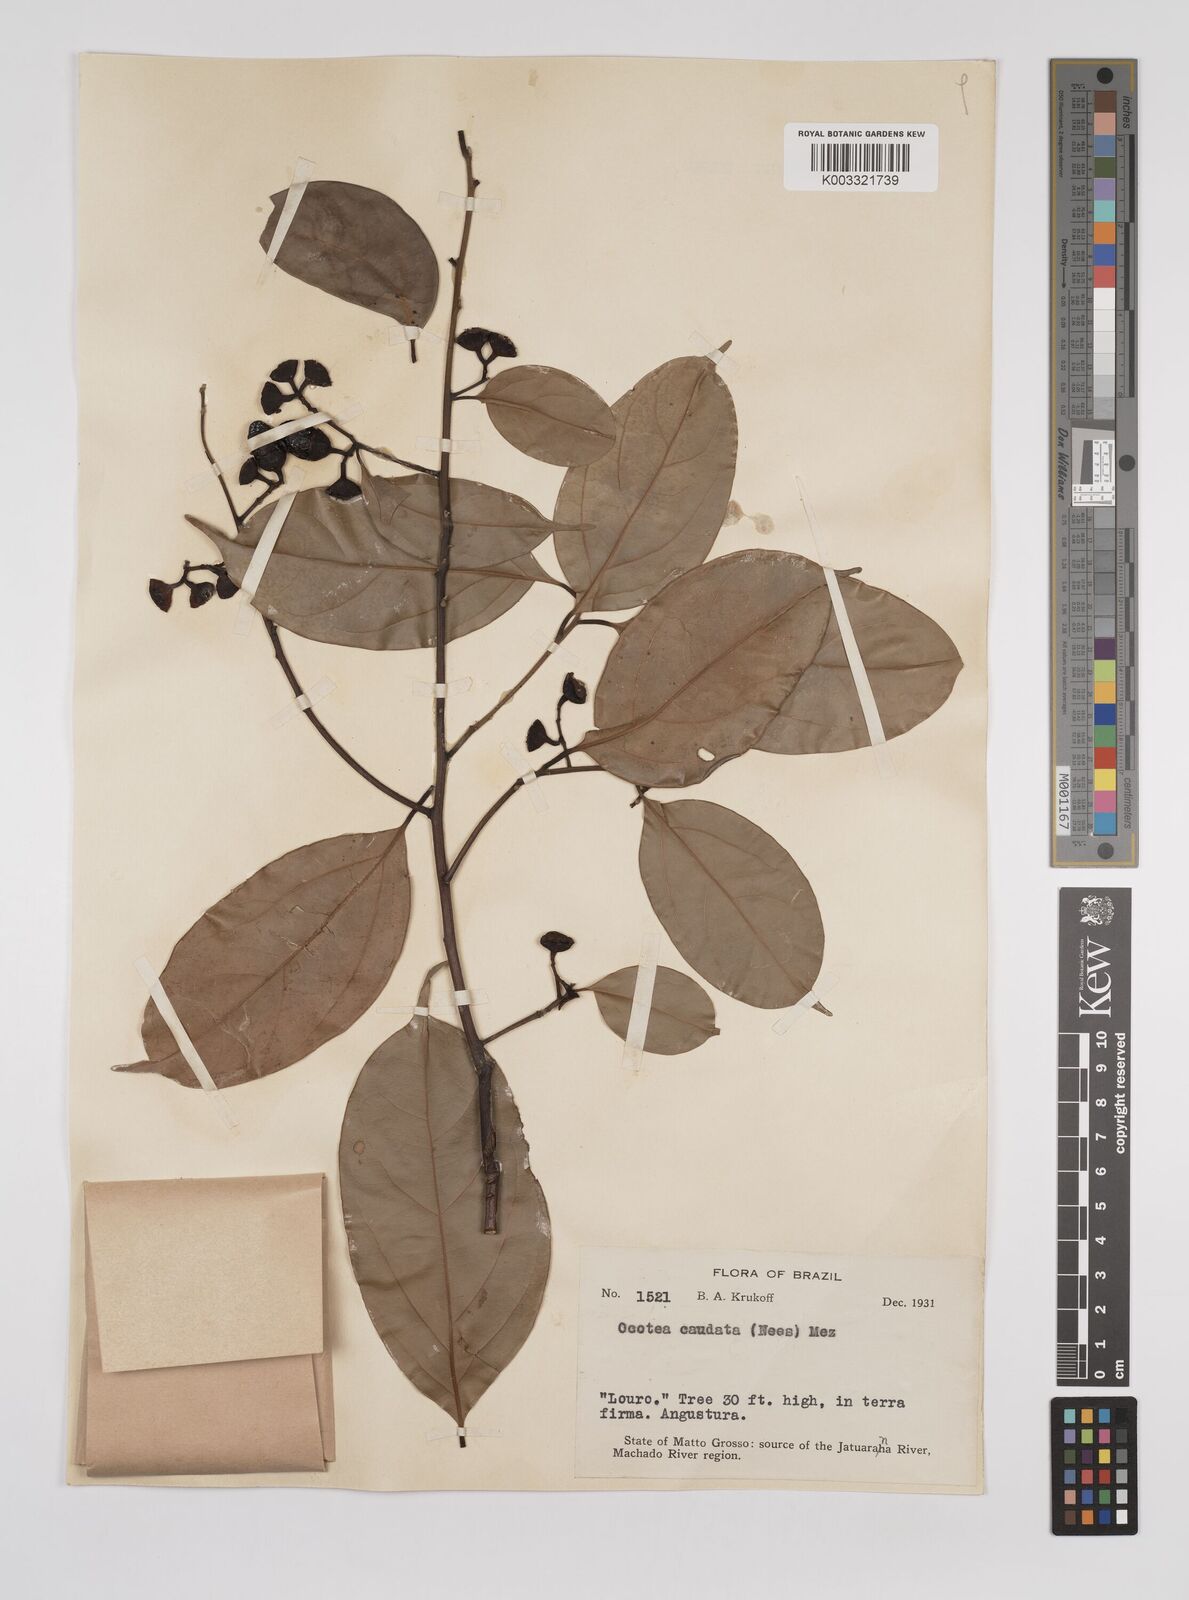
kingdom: Plantae
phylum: Tracheophyta
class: Magnoliopsida
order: Laurales
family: Lauraceae
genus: Ocotea
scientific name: Ocotea leptobotra
